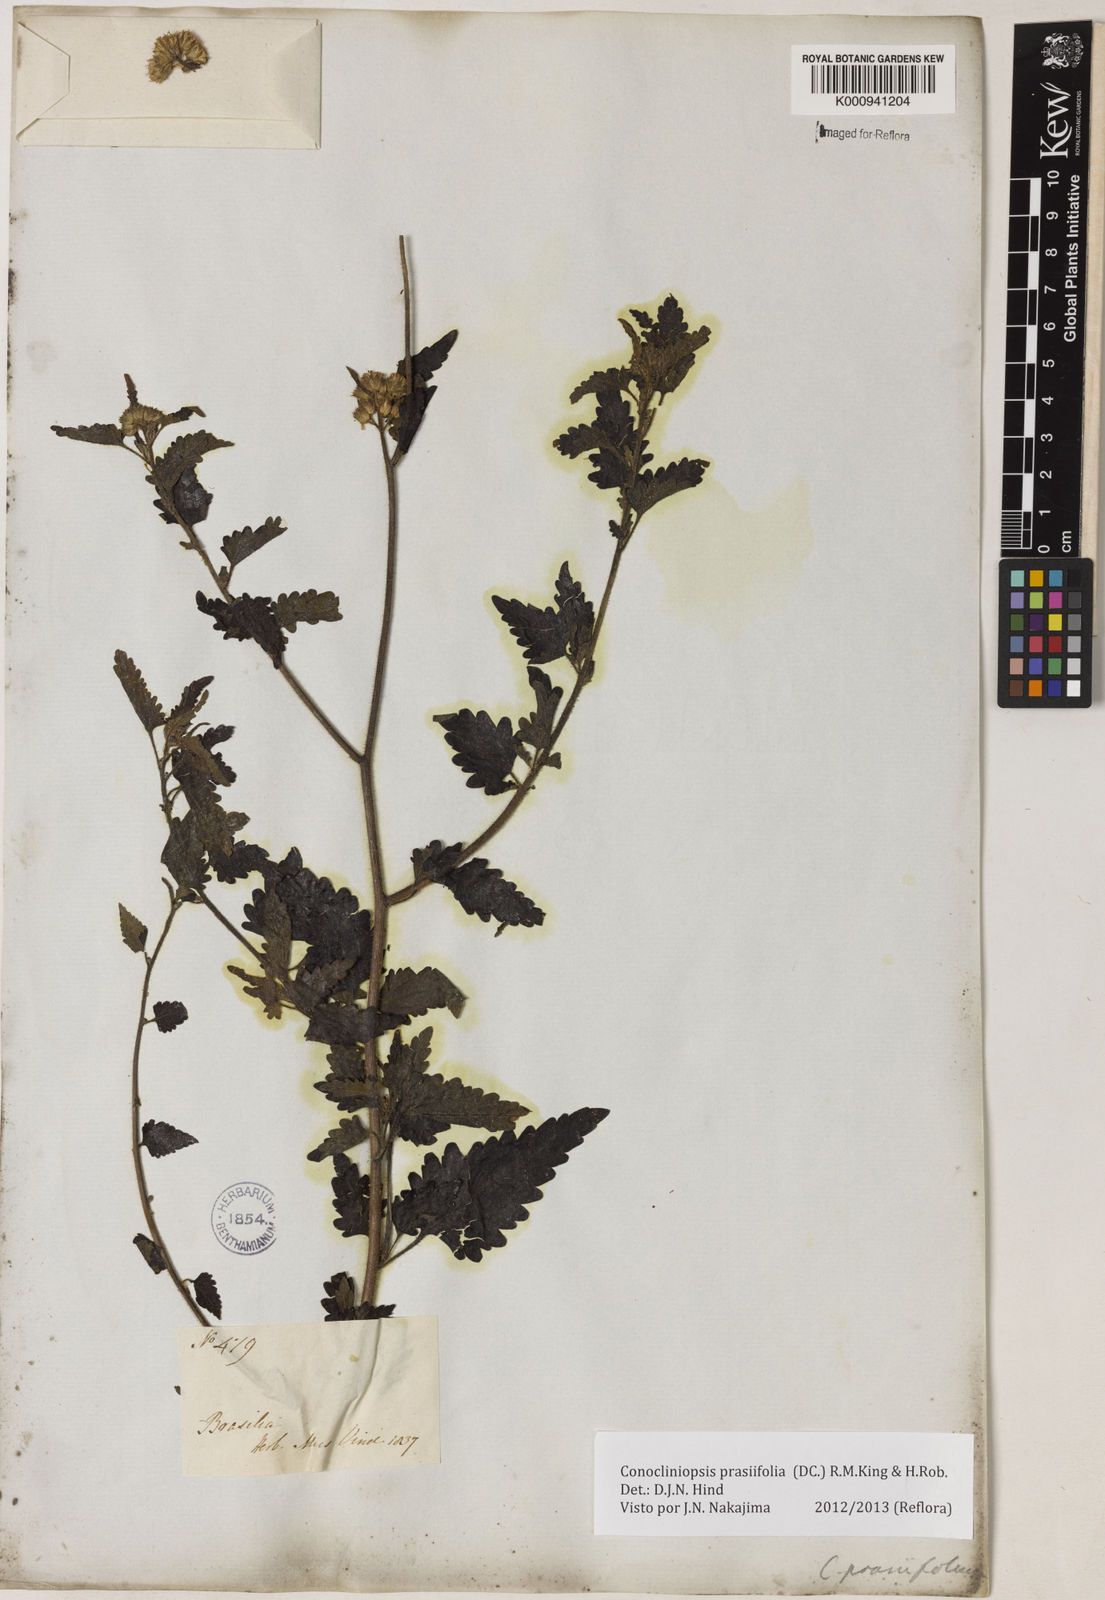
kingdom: Plantae
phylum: Tracheophyta
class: Magnoliopsida
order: Asterales
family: Asteraceae
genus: Conocliniopsis
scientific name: Conocliniopsis grossedentata
